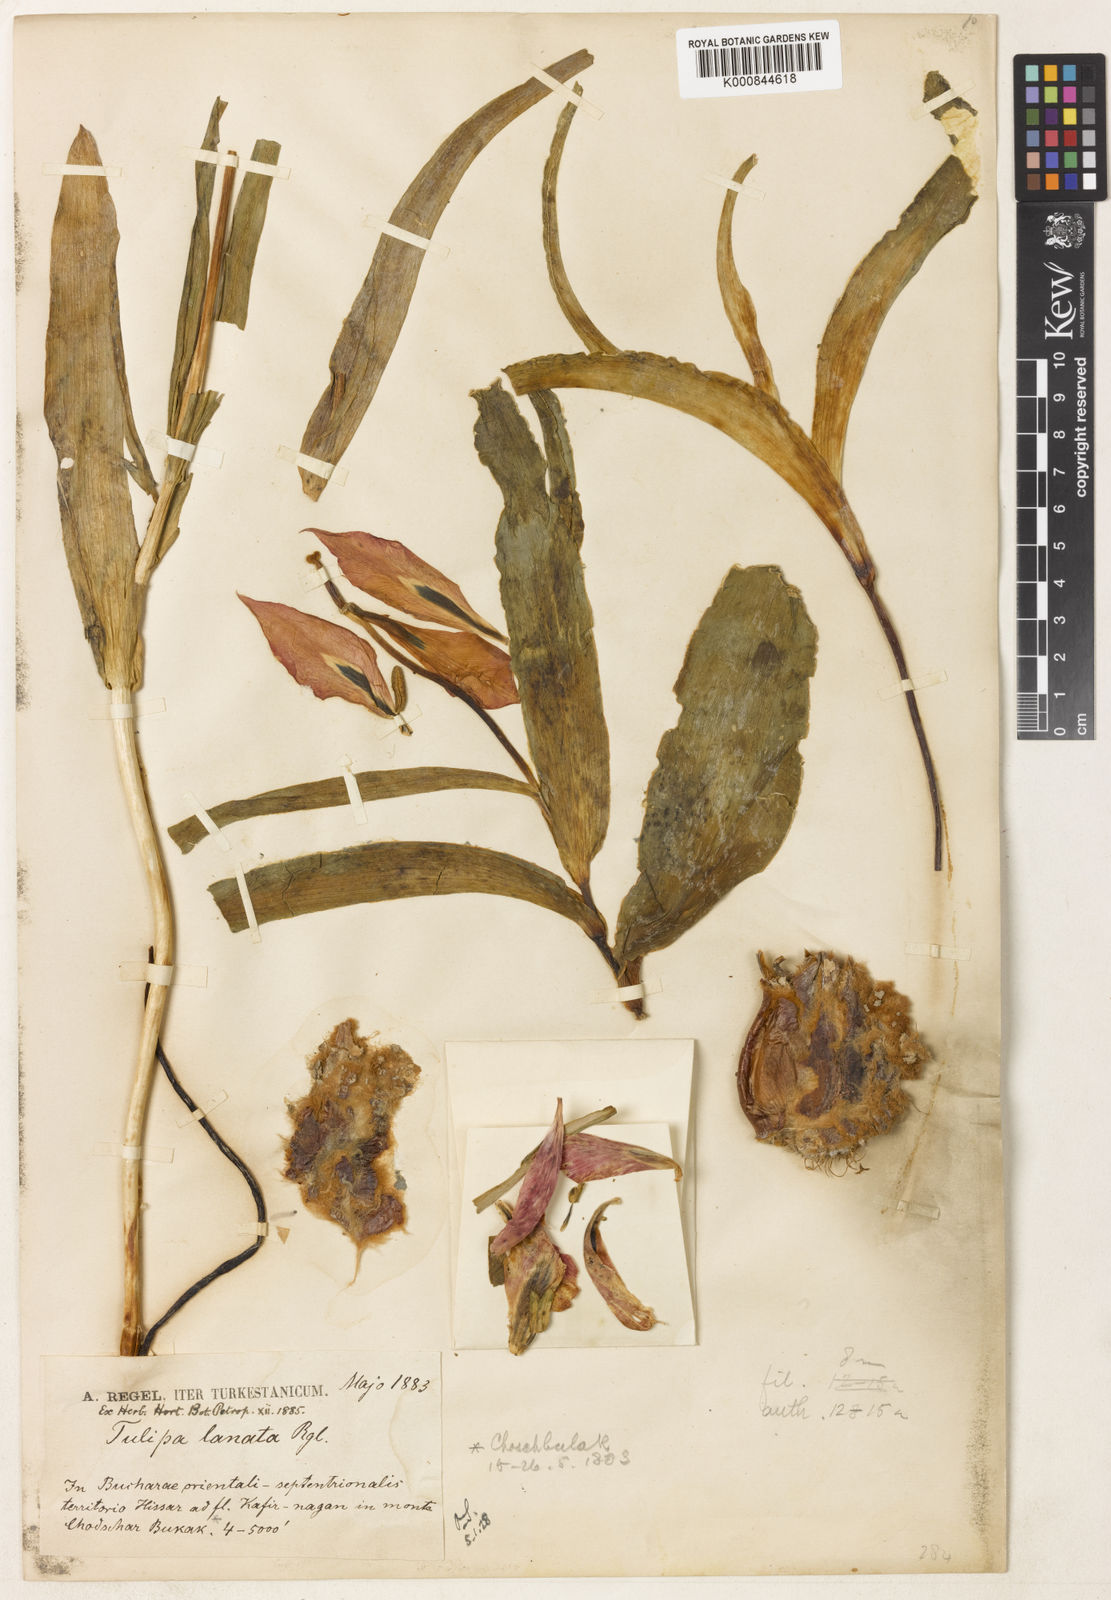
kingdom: Plantae
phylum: Tracheophyta
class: Liliopsida
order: Liliales
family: Liliaceae
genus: Tulipa
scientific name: Tulipa hoogiana
